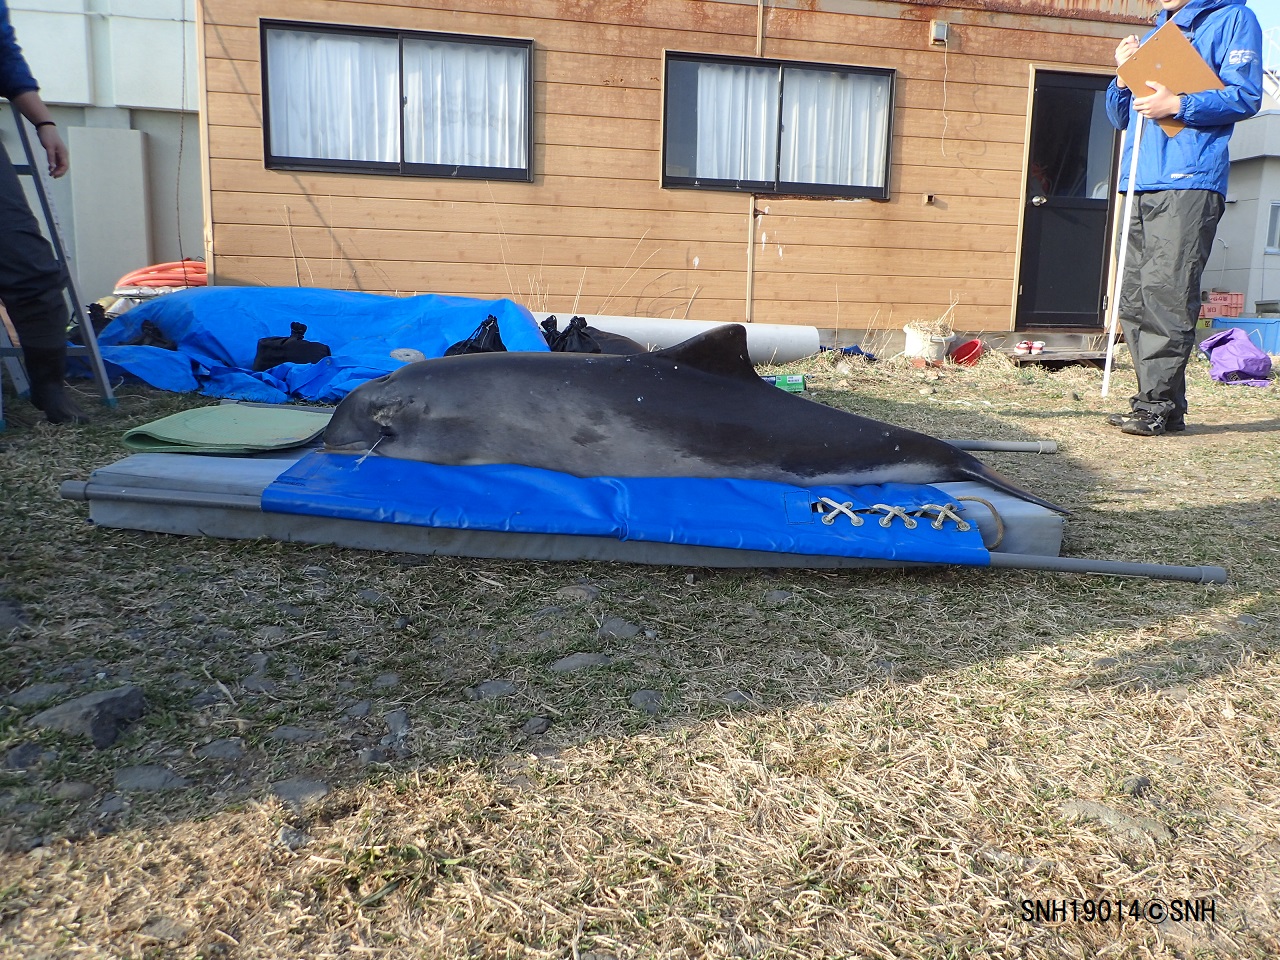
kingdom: Animalia
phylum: Chordata
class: Mammalia
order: Cetacea
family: Phocoenidae
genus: Phocoena
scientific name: Phocoena phocoena
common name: Harbour porpoise
